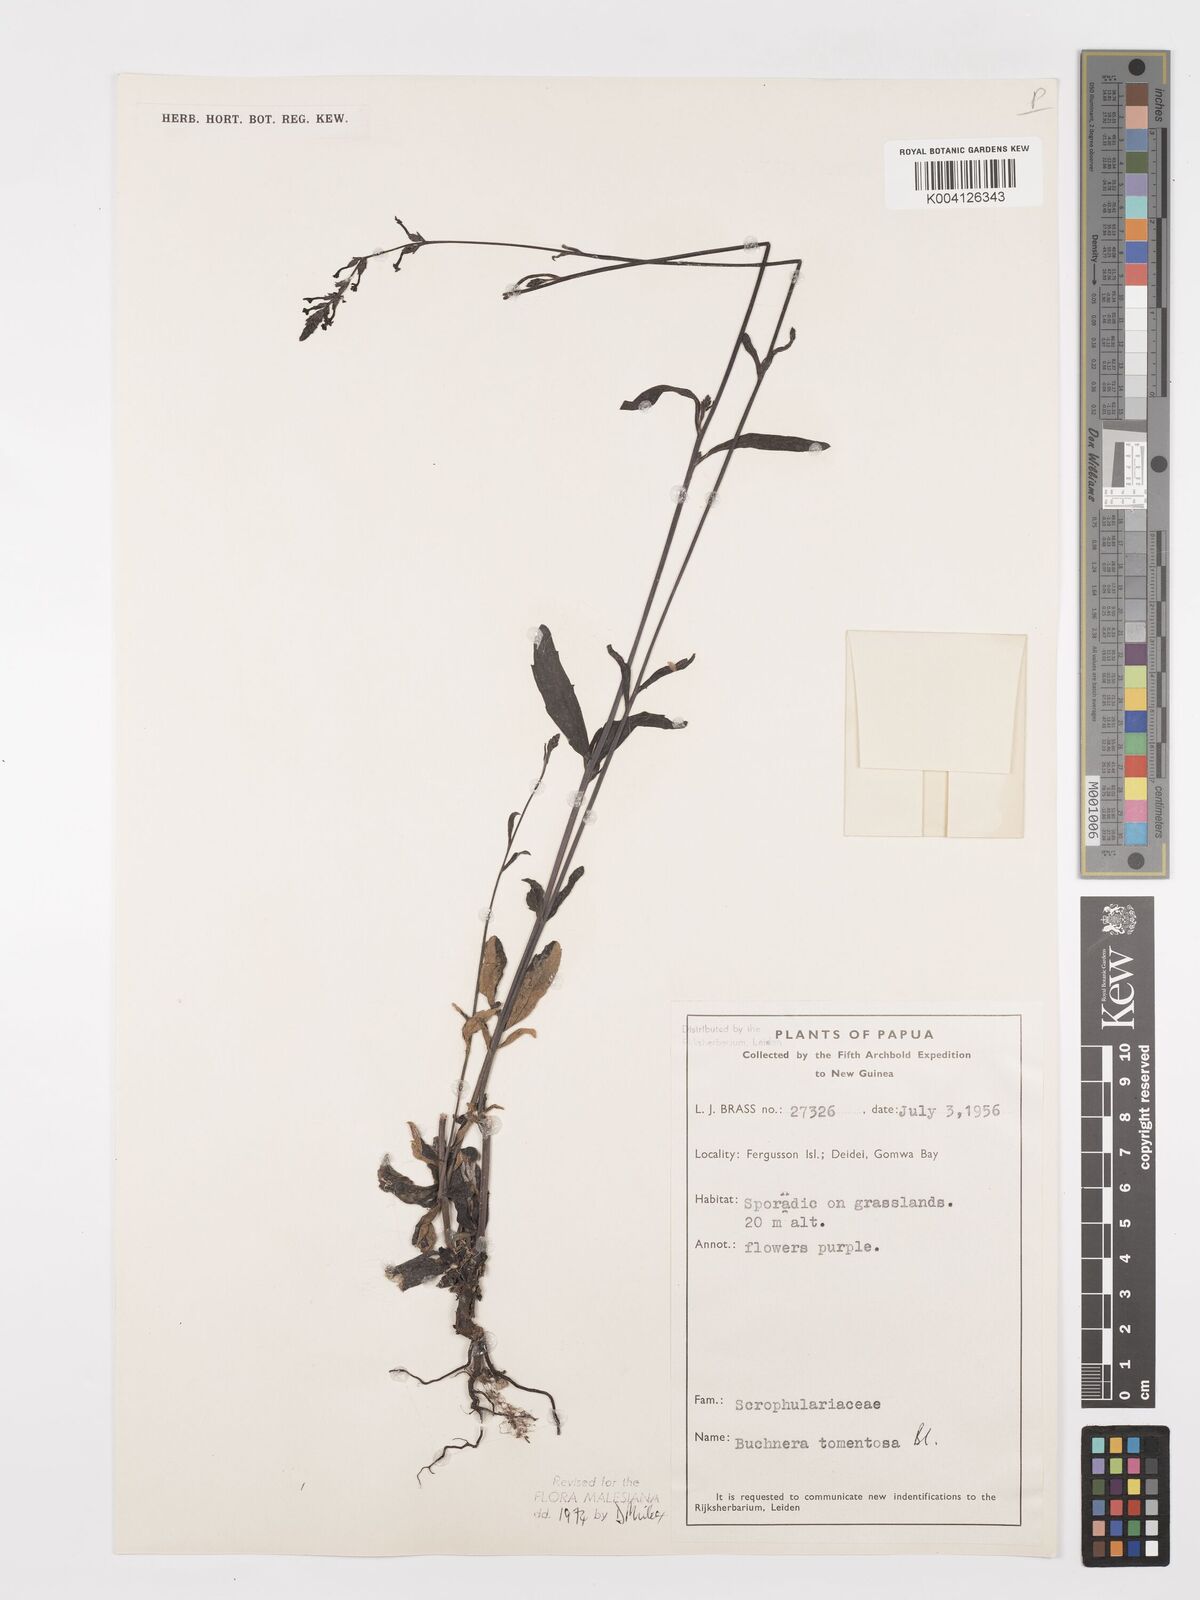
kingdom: Plantae
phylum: Tracheophyta
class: Magnoliopsida
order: Lamiales
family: Orobanchaceae
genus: Buchnera
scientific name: Buchnera tomentosa
